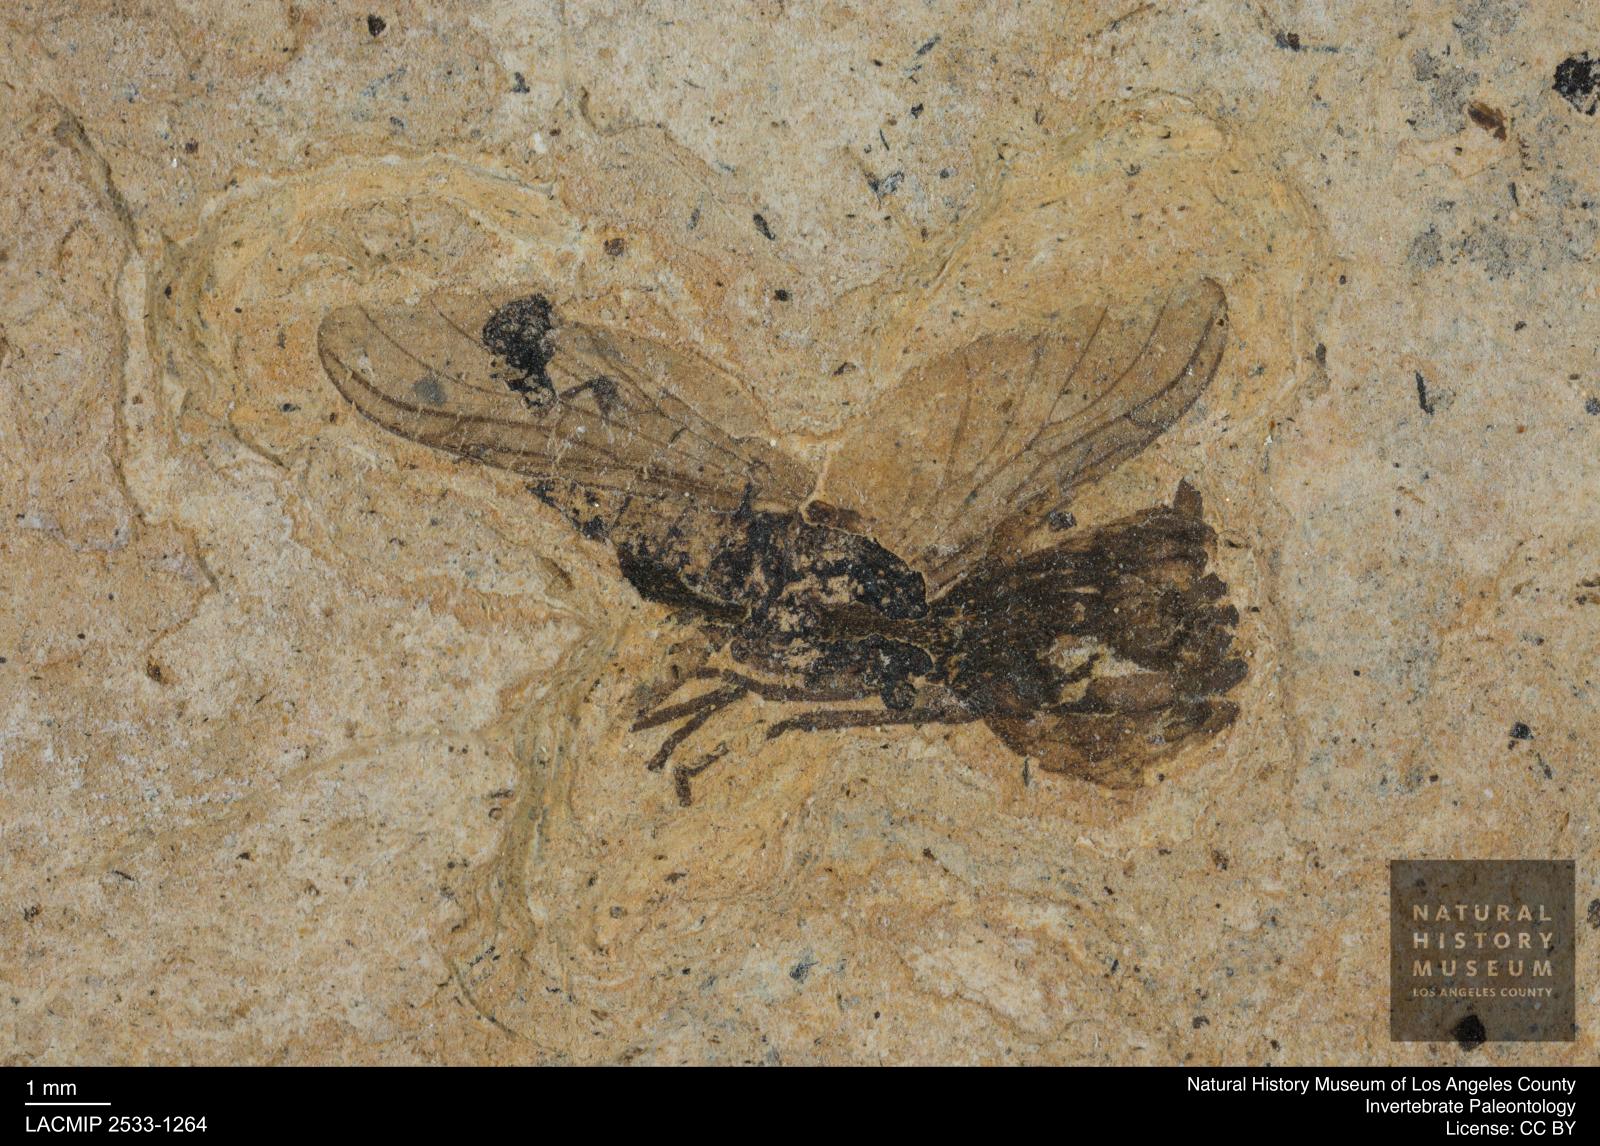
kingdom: Animalia
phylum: Arthropoda
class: Insecta
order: Diptera
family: Bibionidae
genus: Plecia
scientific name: Plecia
